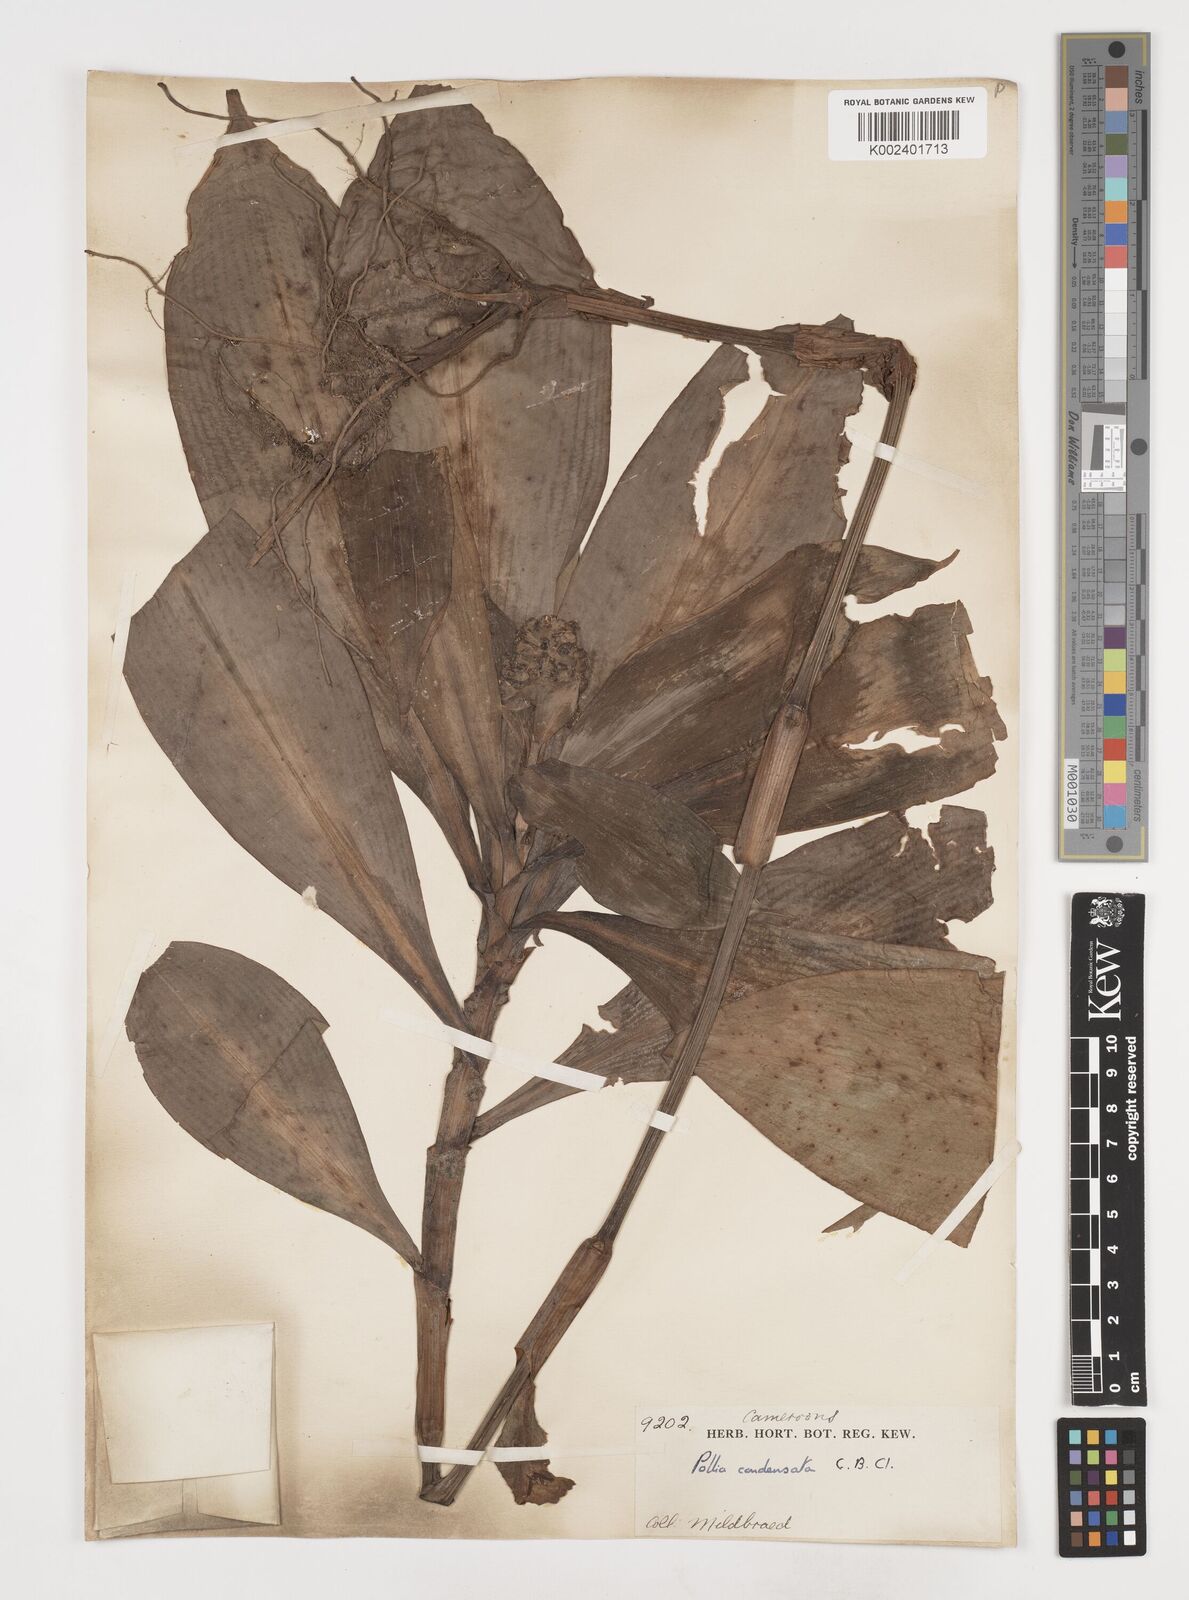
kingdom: Plantae
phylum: Tracheophyta
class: Liliopsida
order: Commelinales
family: Commelinaceae
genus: Pollia
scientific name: Pollia condensata
